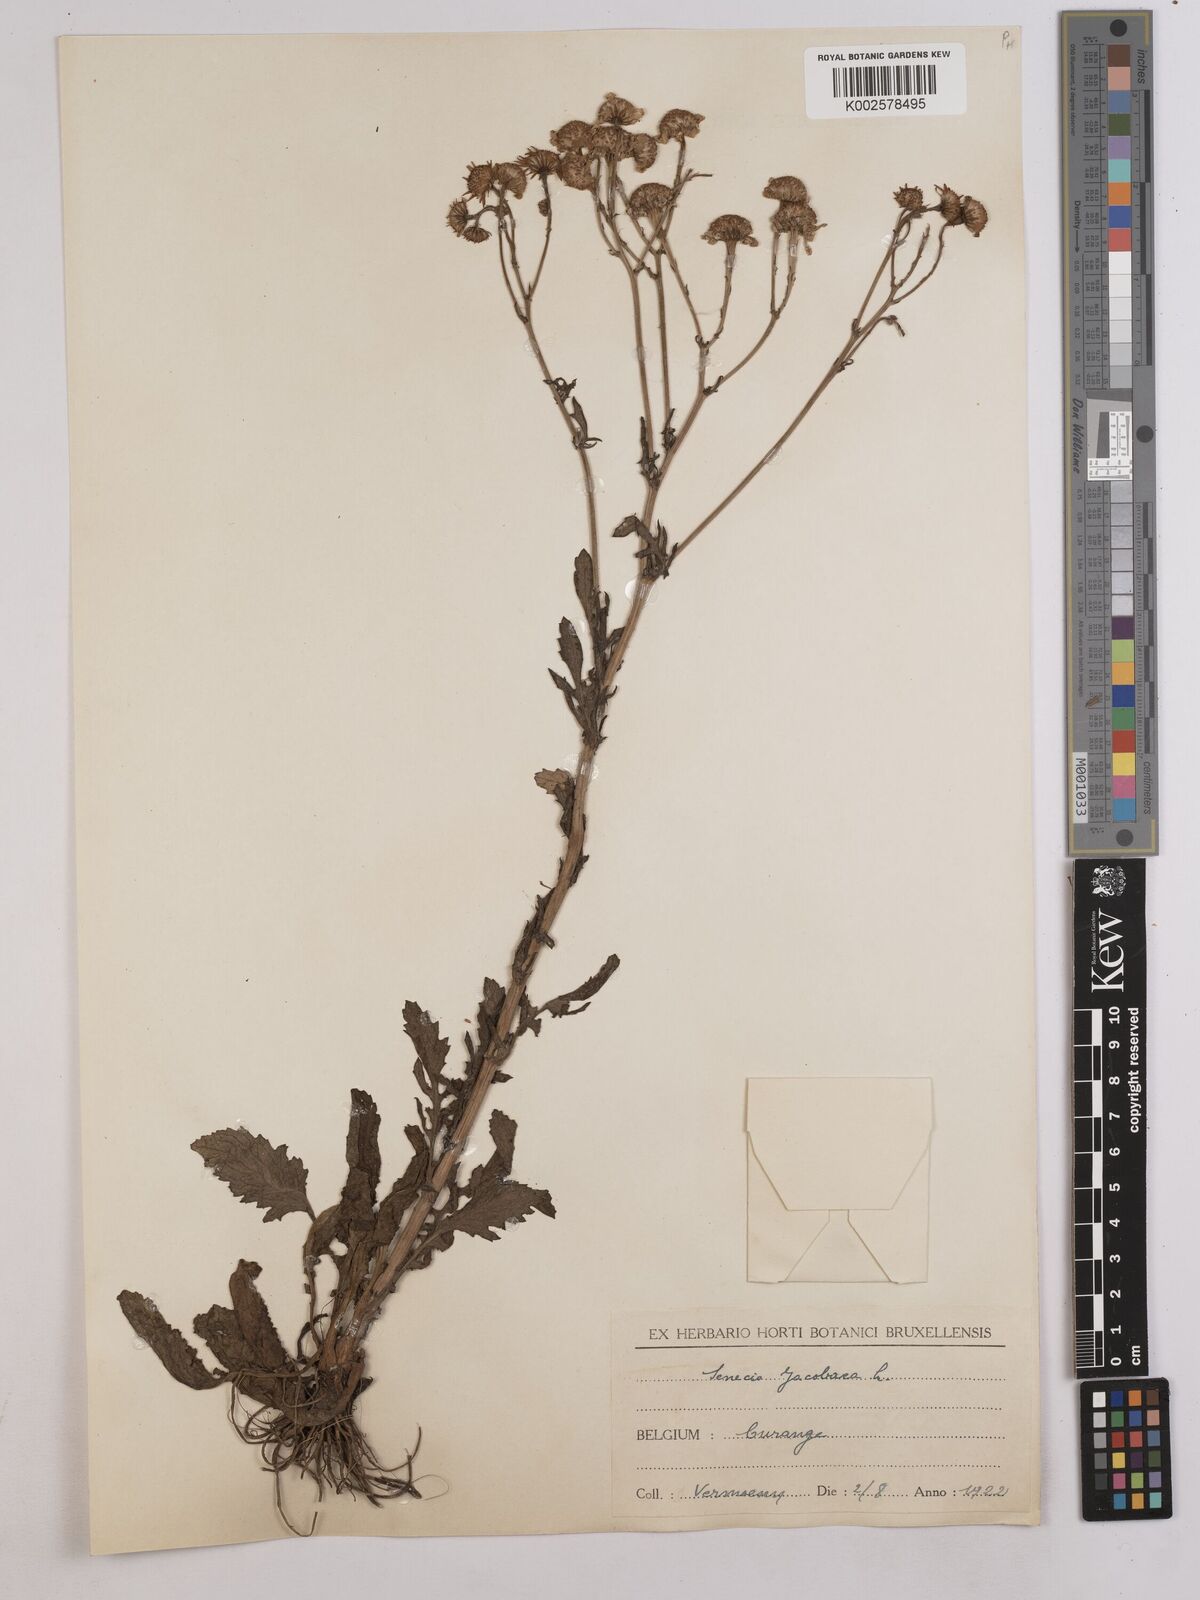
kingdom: Plantae
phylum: Tracheophyta
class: Magnoliopsida
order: Asterales
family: Asteraceae
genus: Jacobaea
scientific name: Jacobaea vulgaris
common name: Stinking willie
